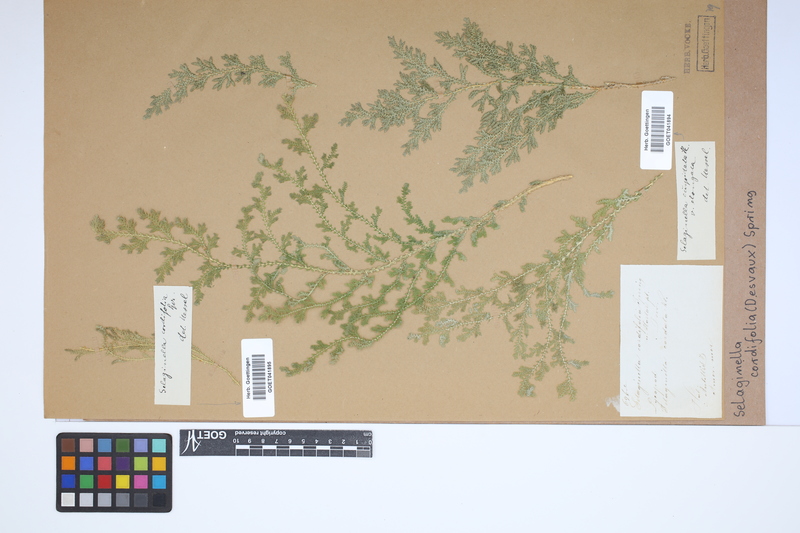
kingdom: Plantae
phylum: Tracheophyta
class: Lycopodiopsida
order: Selaginellales
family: Selaginellaceae
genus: Selaginella
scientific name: Selaginella cordifolia
